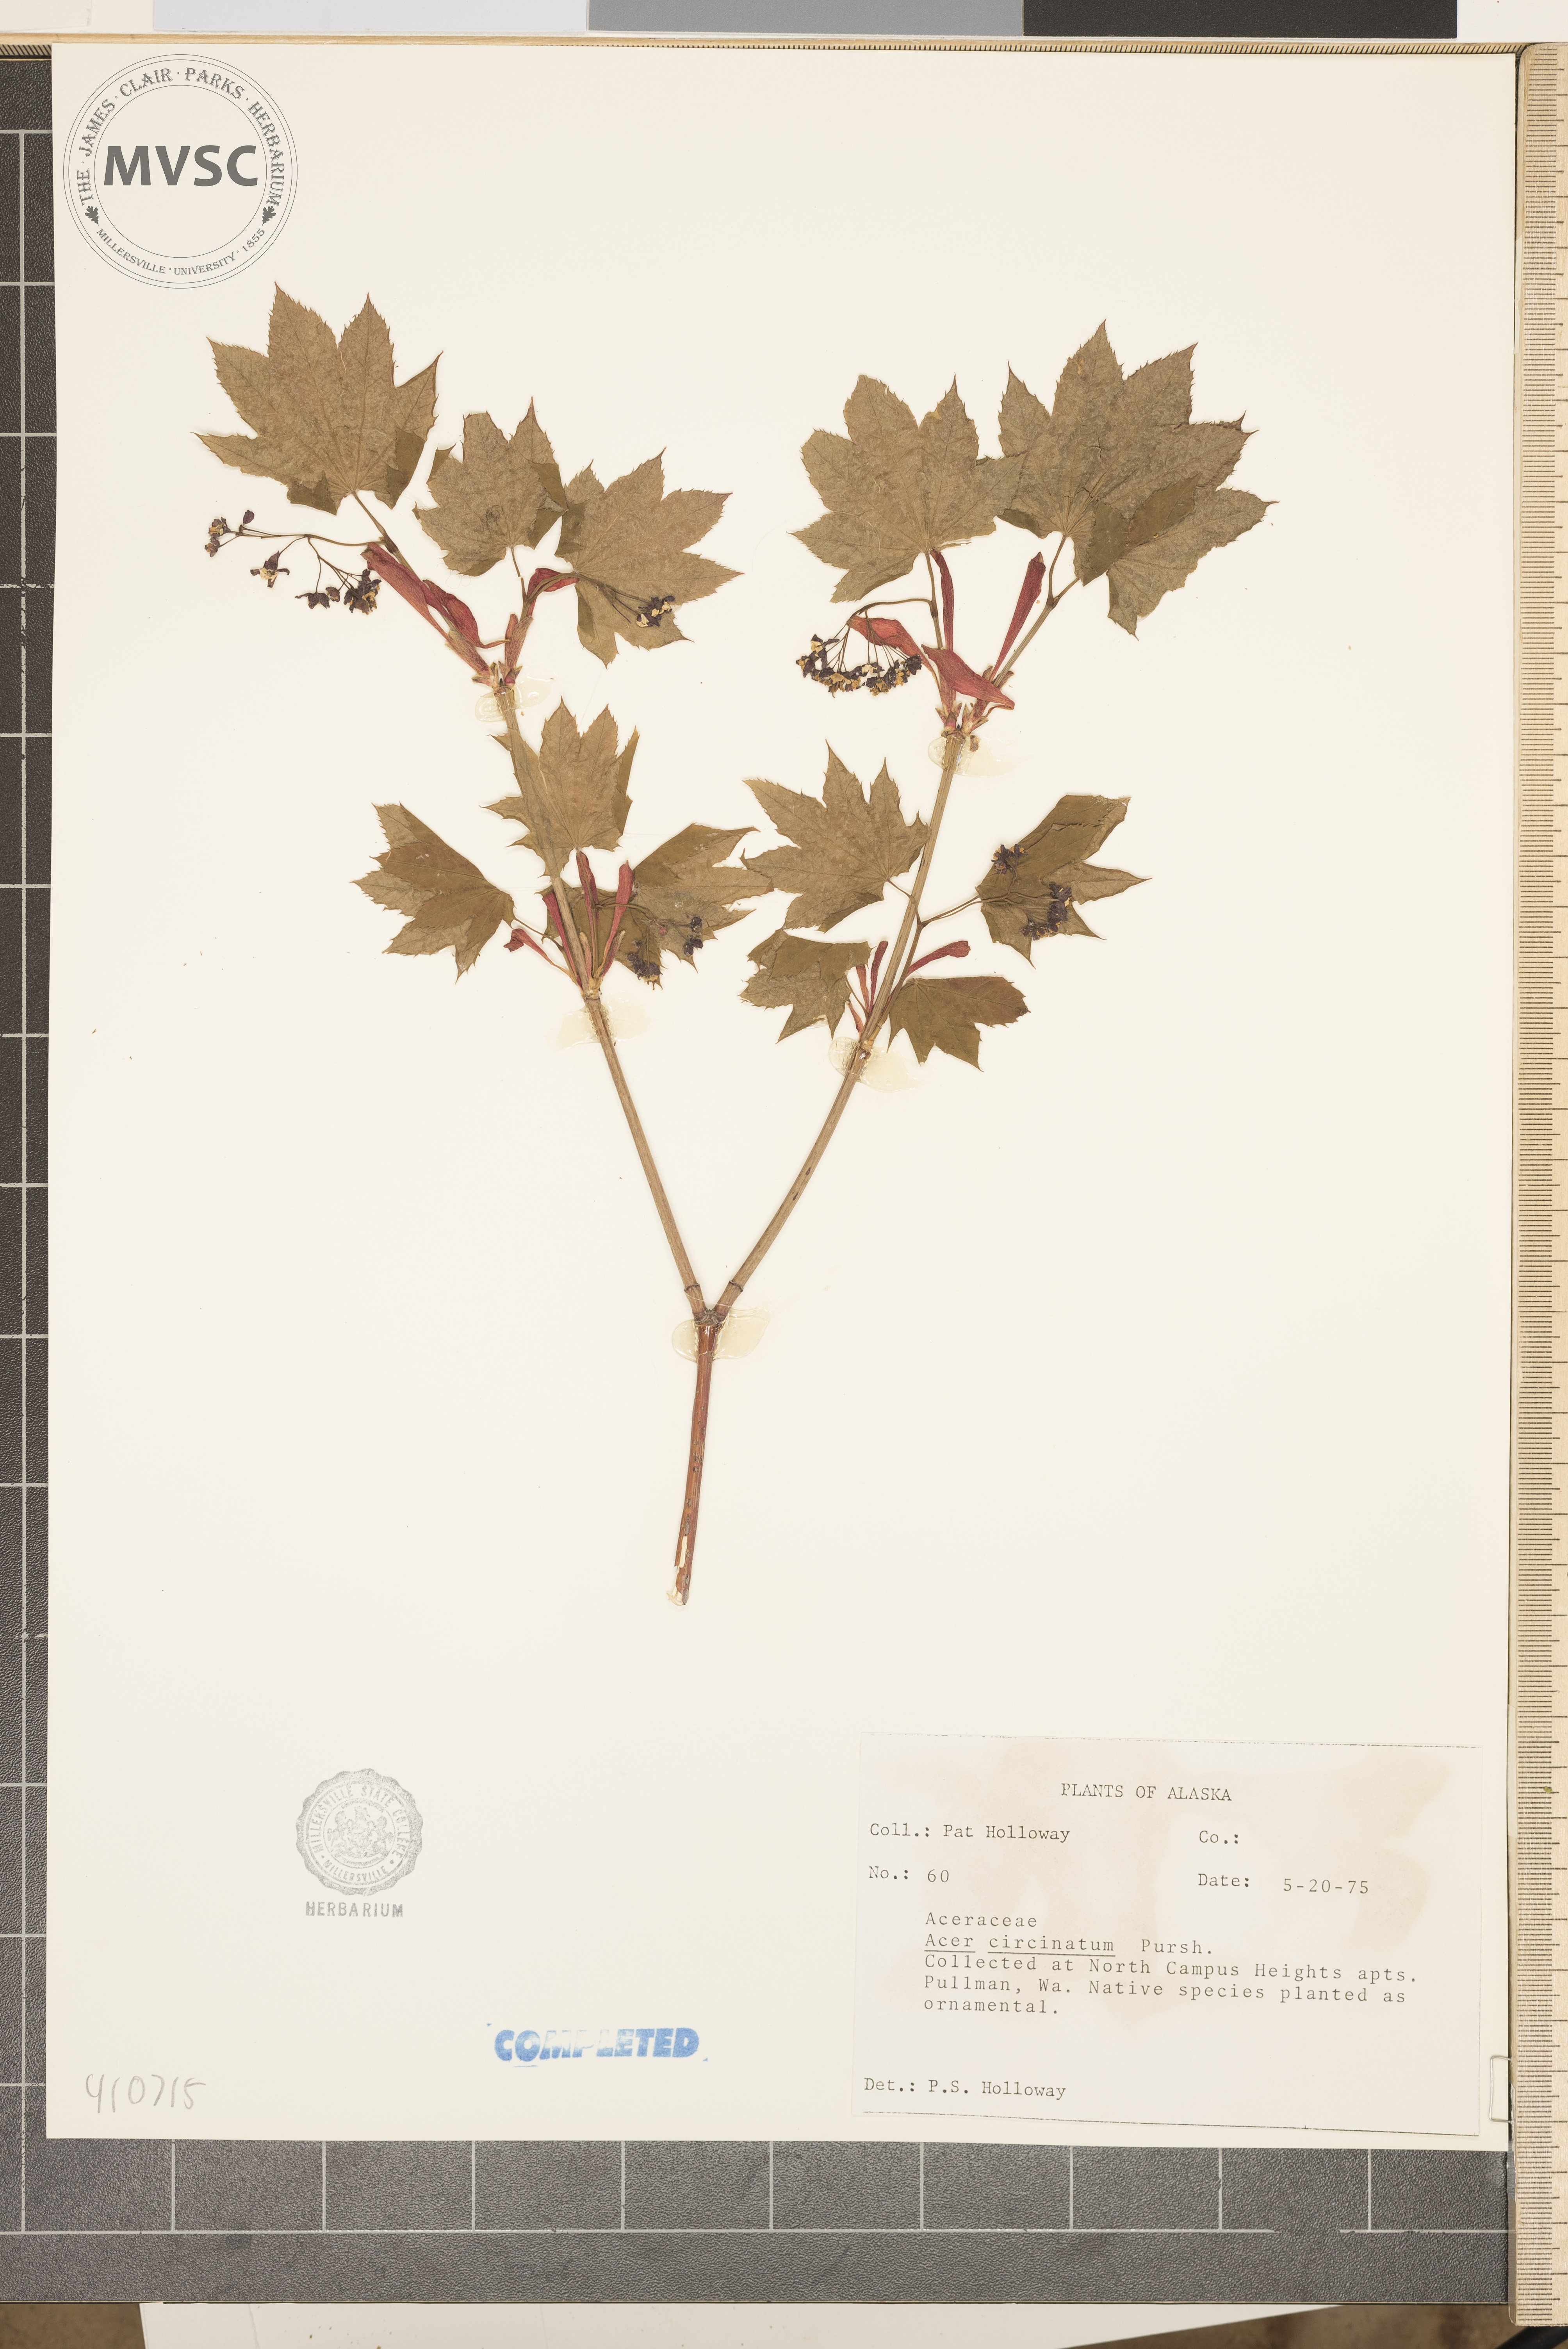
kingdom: Plantae
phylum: Tracheophyta
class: Magnoliopsida
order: Sapindales
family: Sapindaceae
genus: Acer
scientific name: Acer circinatum
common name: Vine maple
